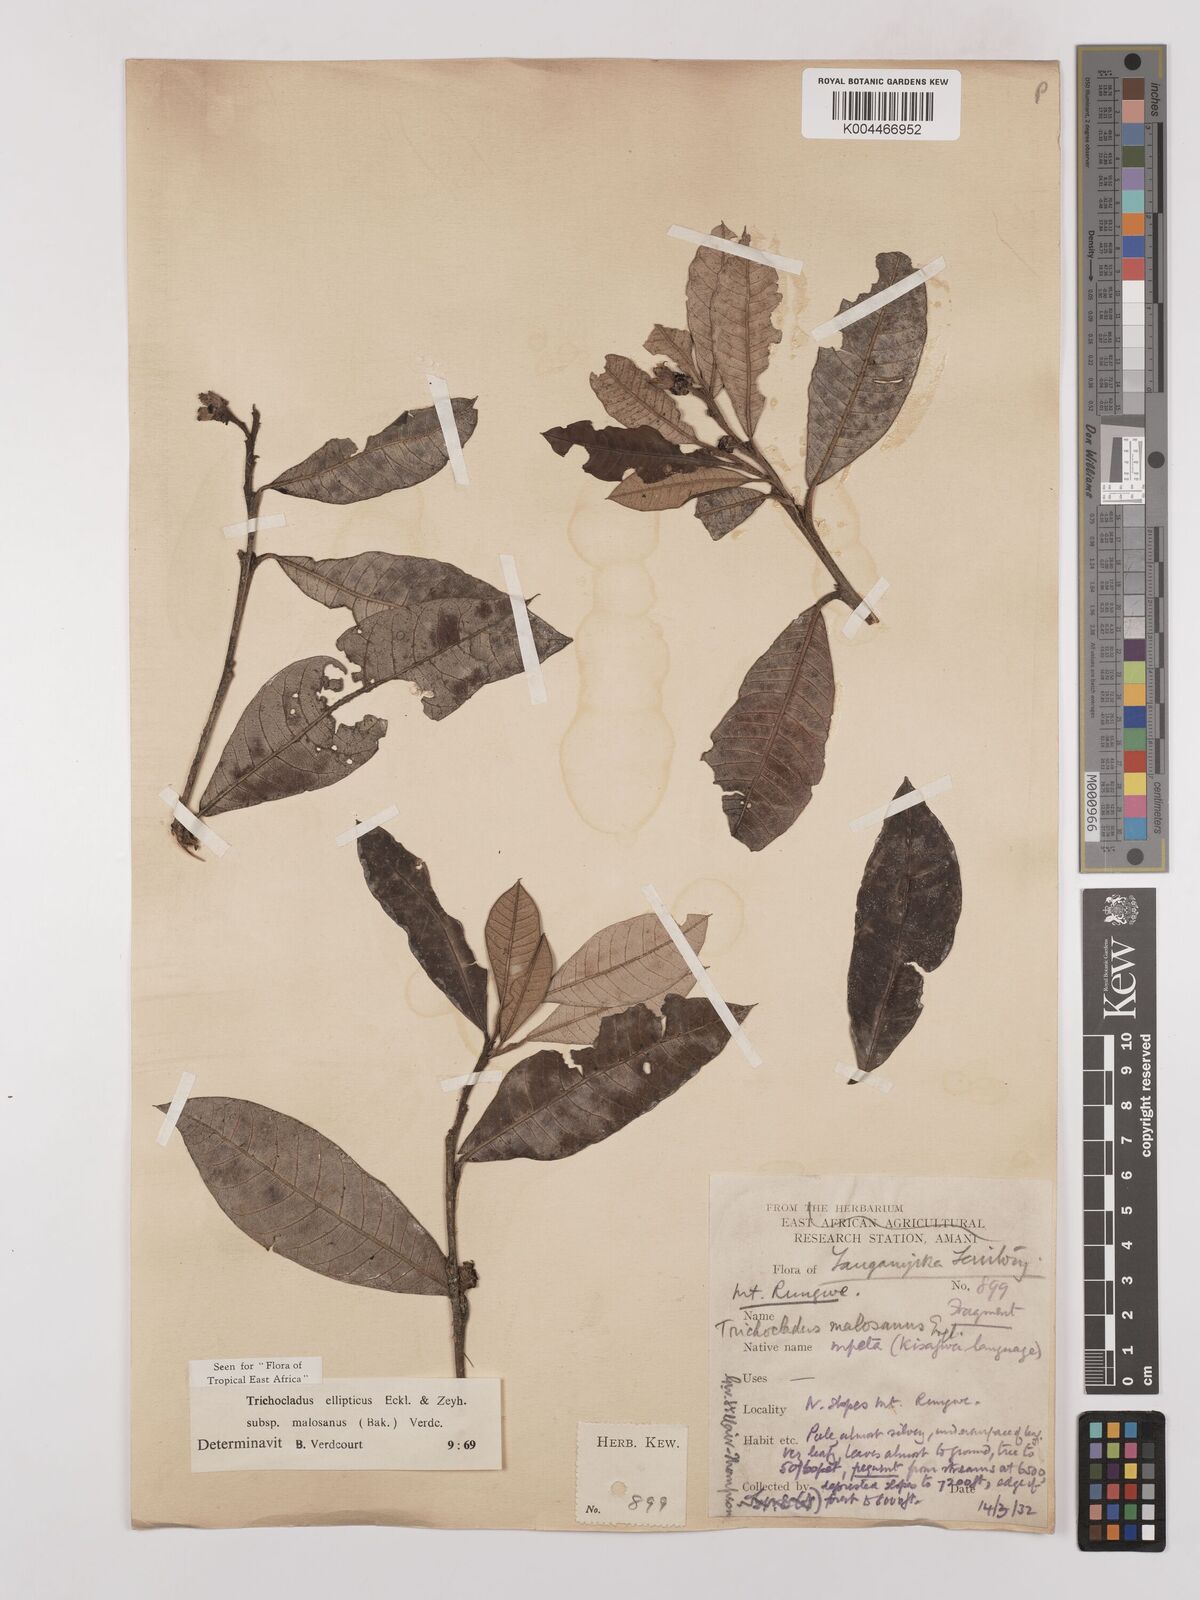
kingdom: Plantae
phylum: Tracheophyta
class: Magnoliopsida
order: Saxifragales
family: Hamamelidaceae
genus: Trichocladus
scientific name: Trichocladus ellipticus
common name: White witch-hazel
